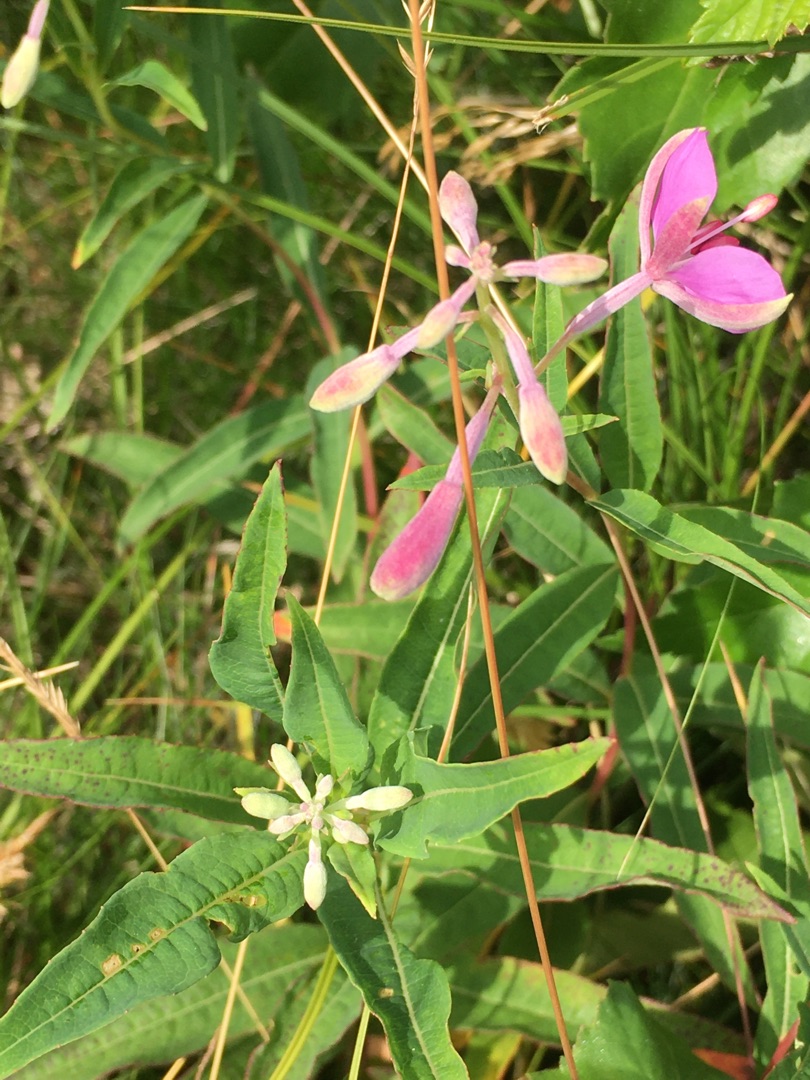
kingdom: Plantae
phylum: Tracheophyta
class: Magnoliopsida
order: Myrtales
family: Onagraceae
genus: Chamaenerion
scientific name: Chamaenerion angustifolium
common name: Gederams
